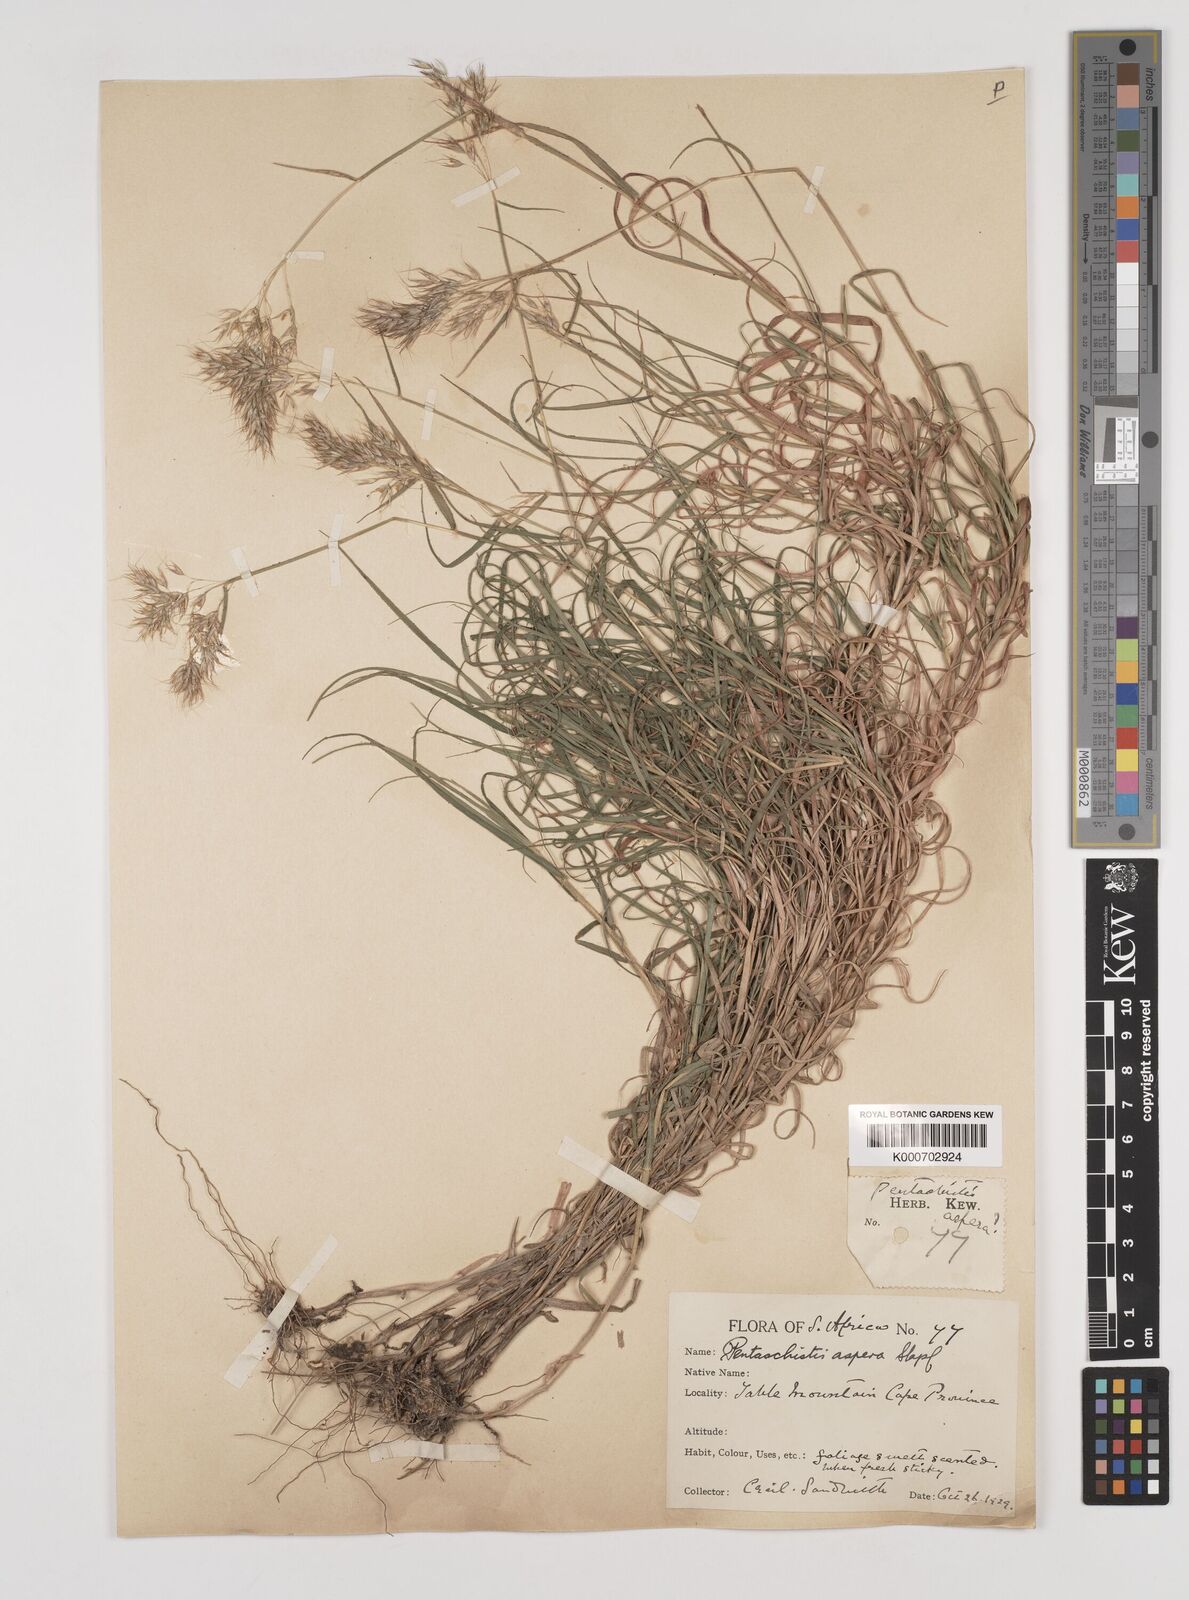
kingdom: Plantae
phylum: Tracheophyta
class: Liliopsida
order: Poales
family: Poaceae
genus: Pentameris
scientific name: Pentameris aspera
